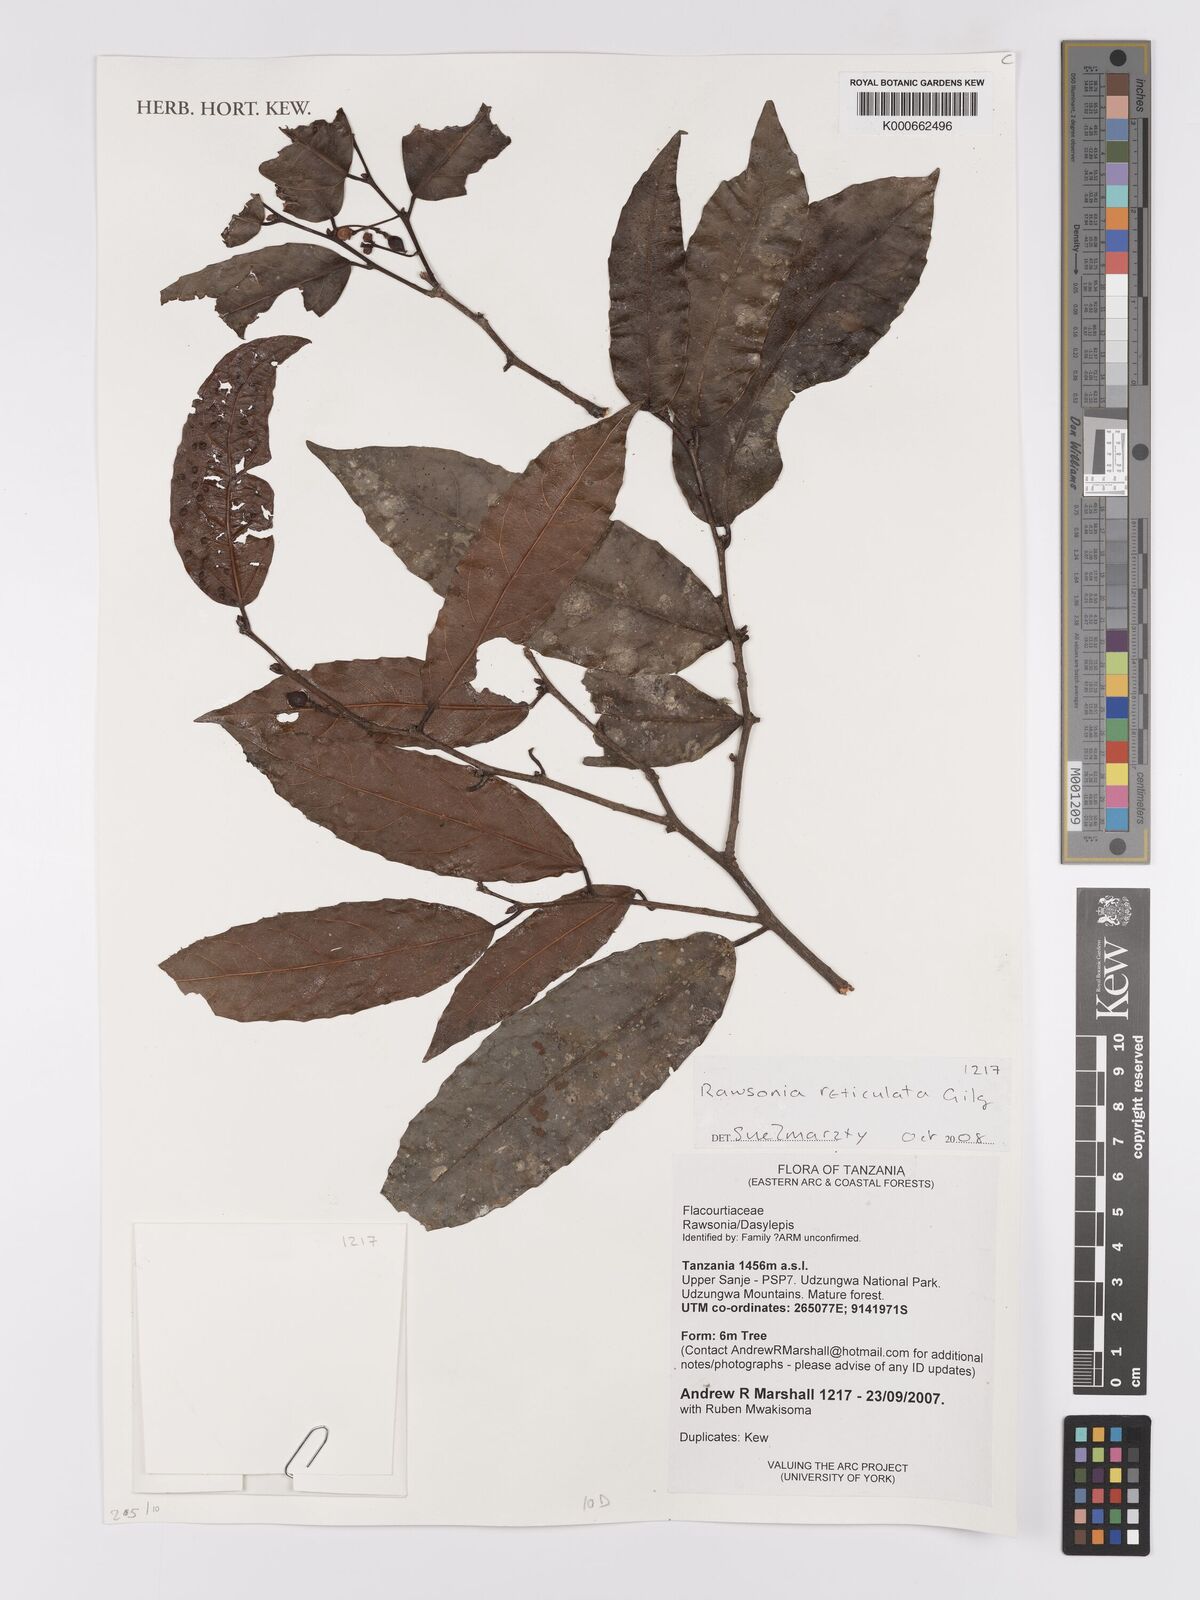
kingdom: Plantae
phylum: Tracheophyta
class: Magnoliopsida
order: Malpighiales
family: Achariaceae
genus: Rawsonia
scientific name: Rawsonia lucida
